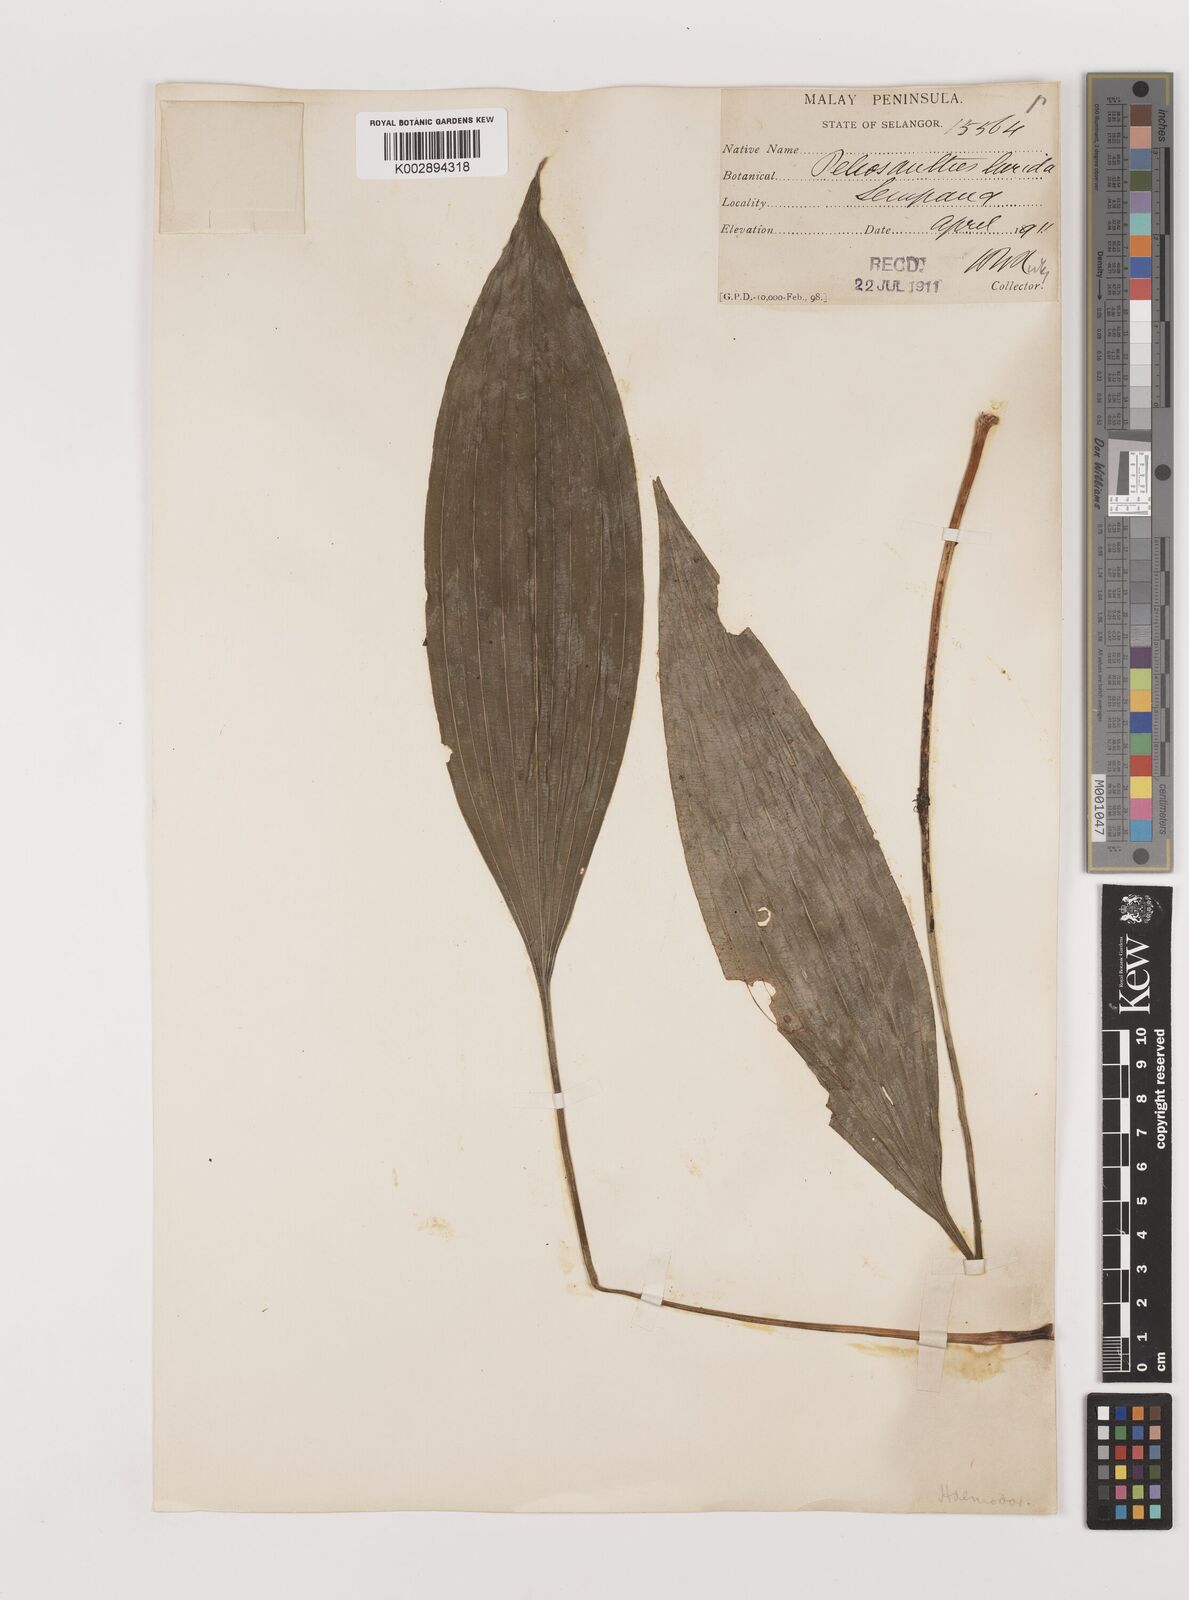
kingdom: Plantae
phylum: Tracheophyta
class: Liliopsida
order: Asparagales
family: Asparagaceae
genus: Peliosanthes
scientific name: Peliosanthes teta
